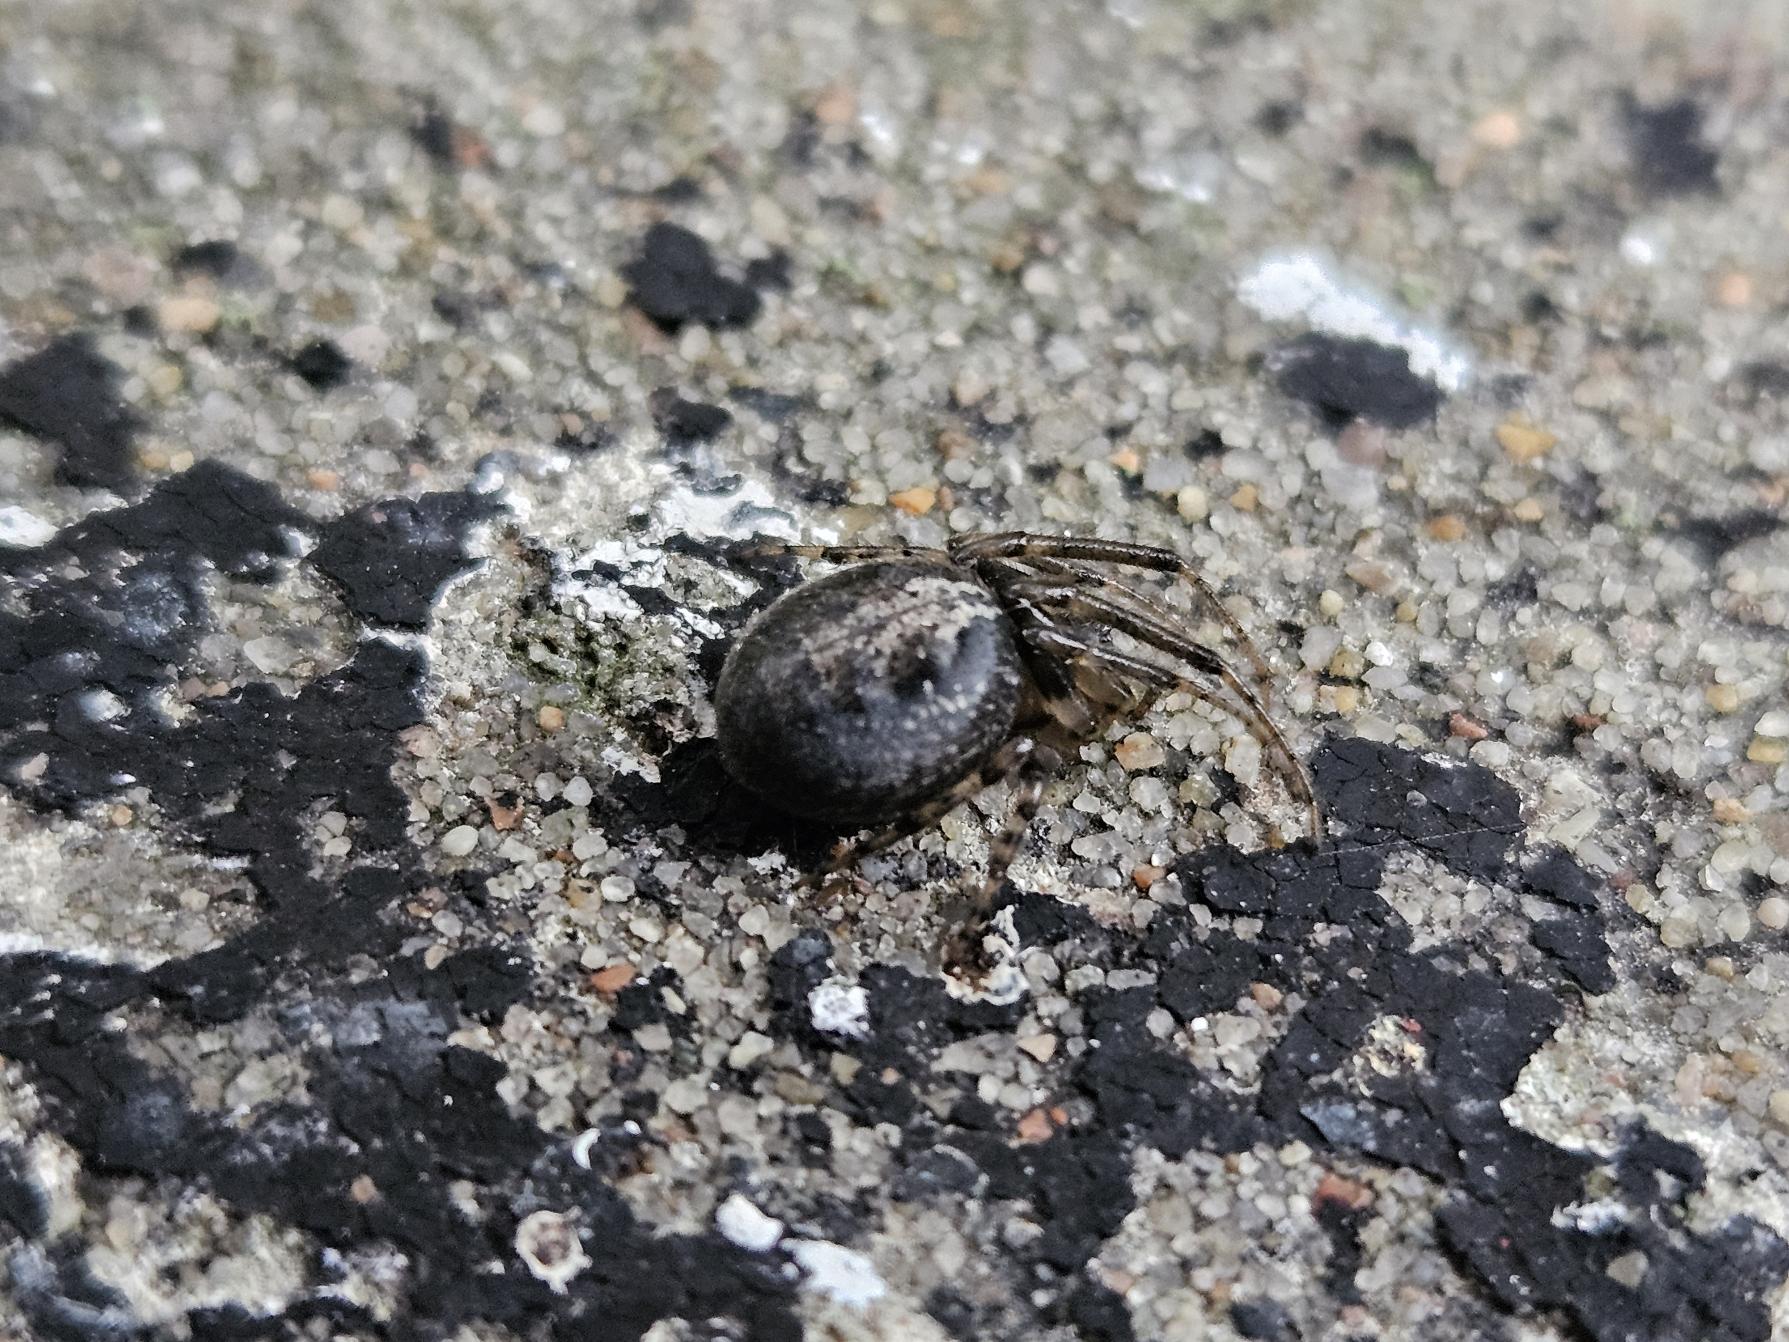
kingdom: Animalia
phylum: Arthropoda
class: Arachnida
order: Araneae
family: Araneidae
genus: Zygiella
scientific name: Zygiella x-notata
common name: Grå sektoredderkop
